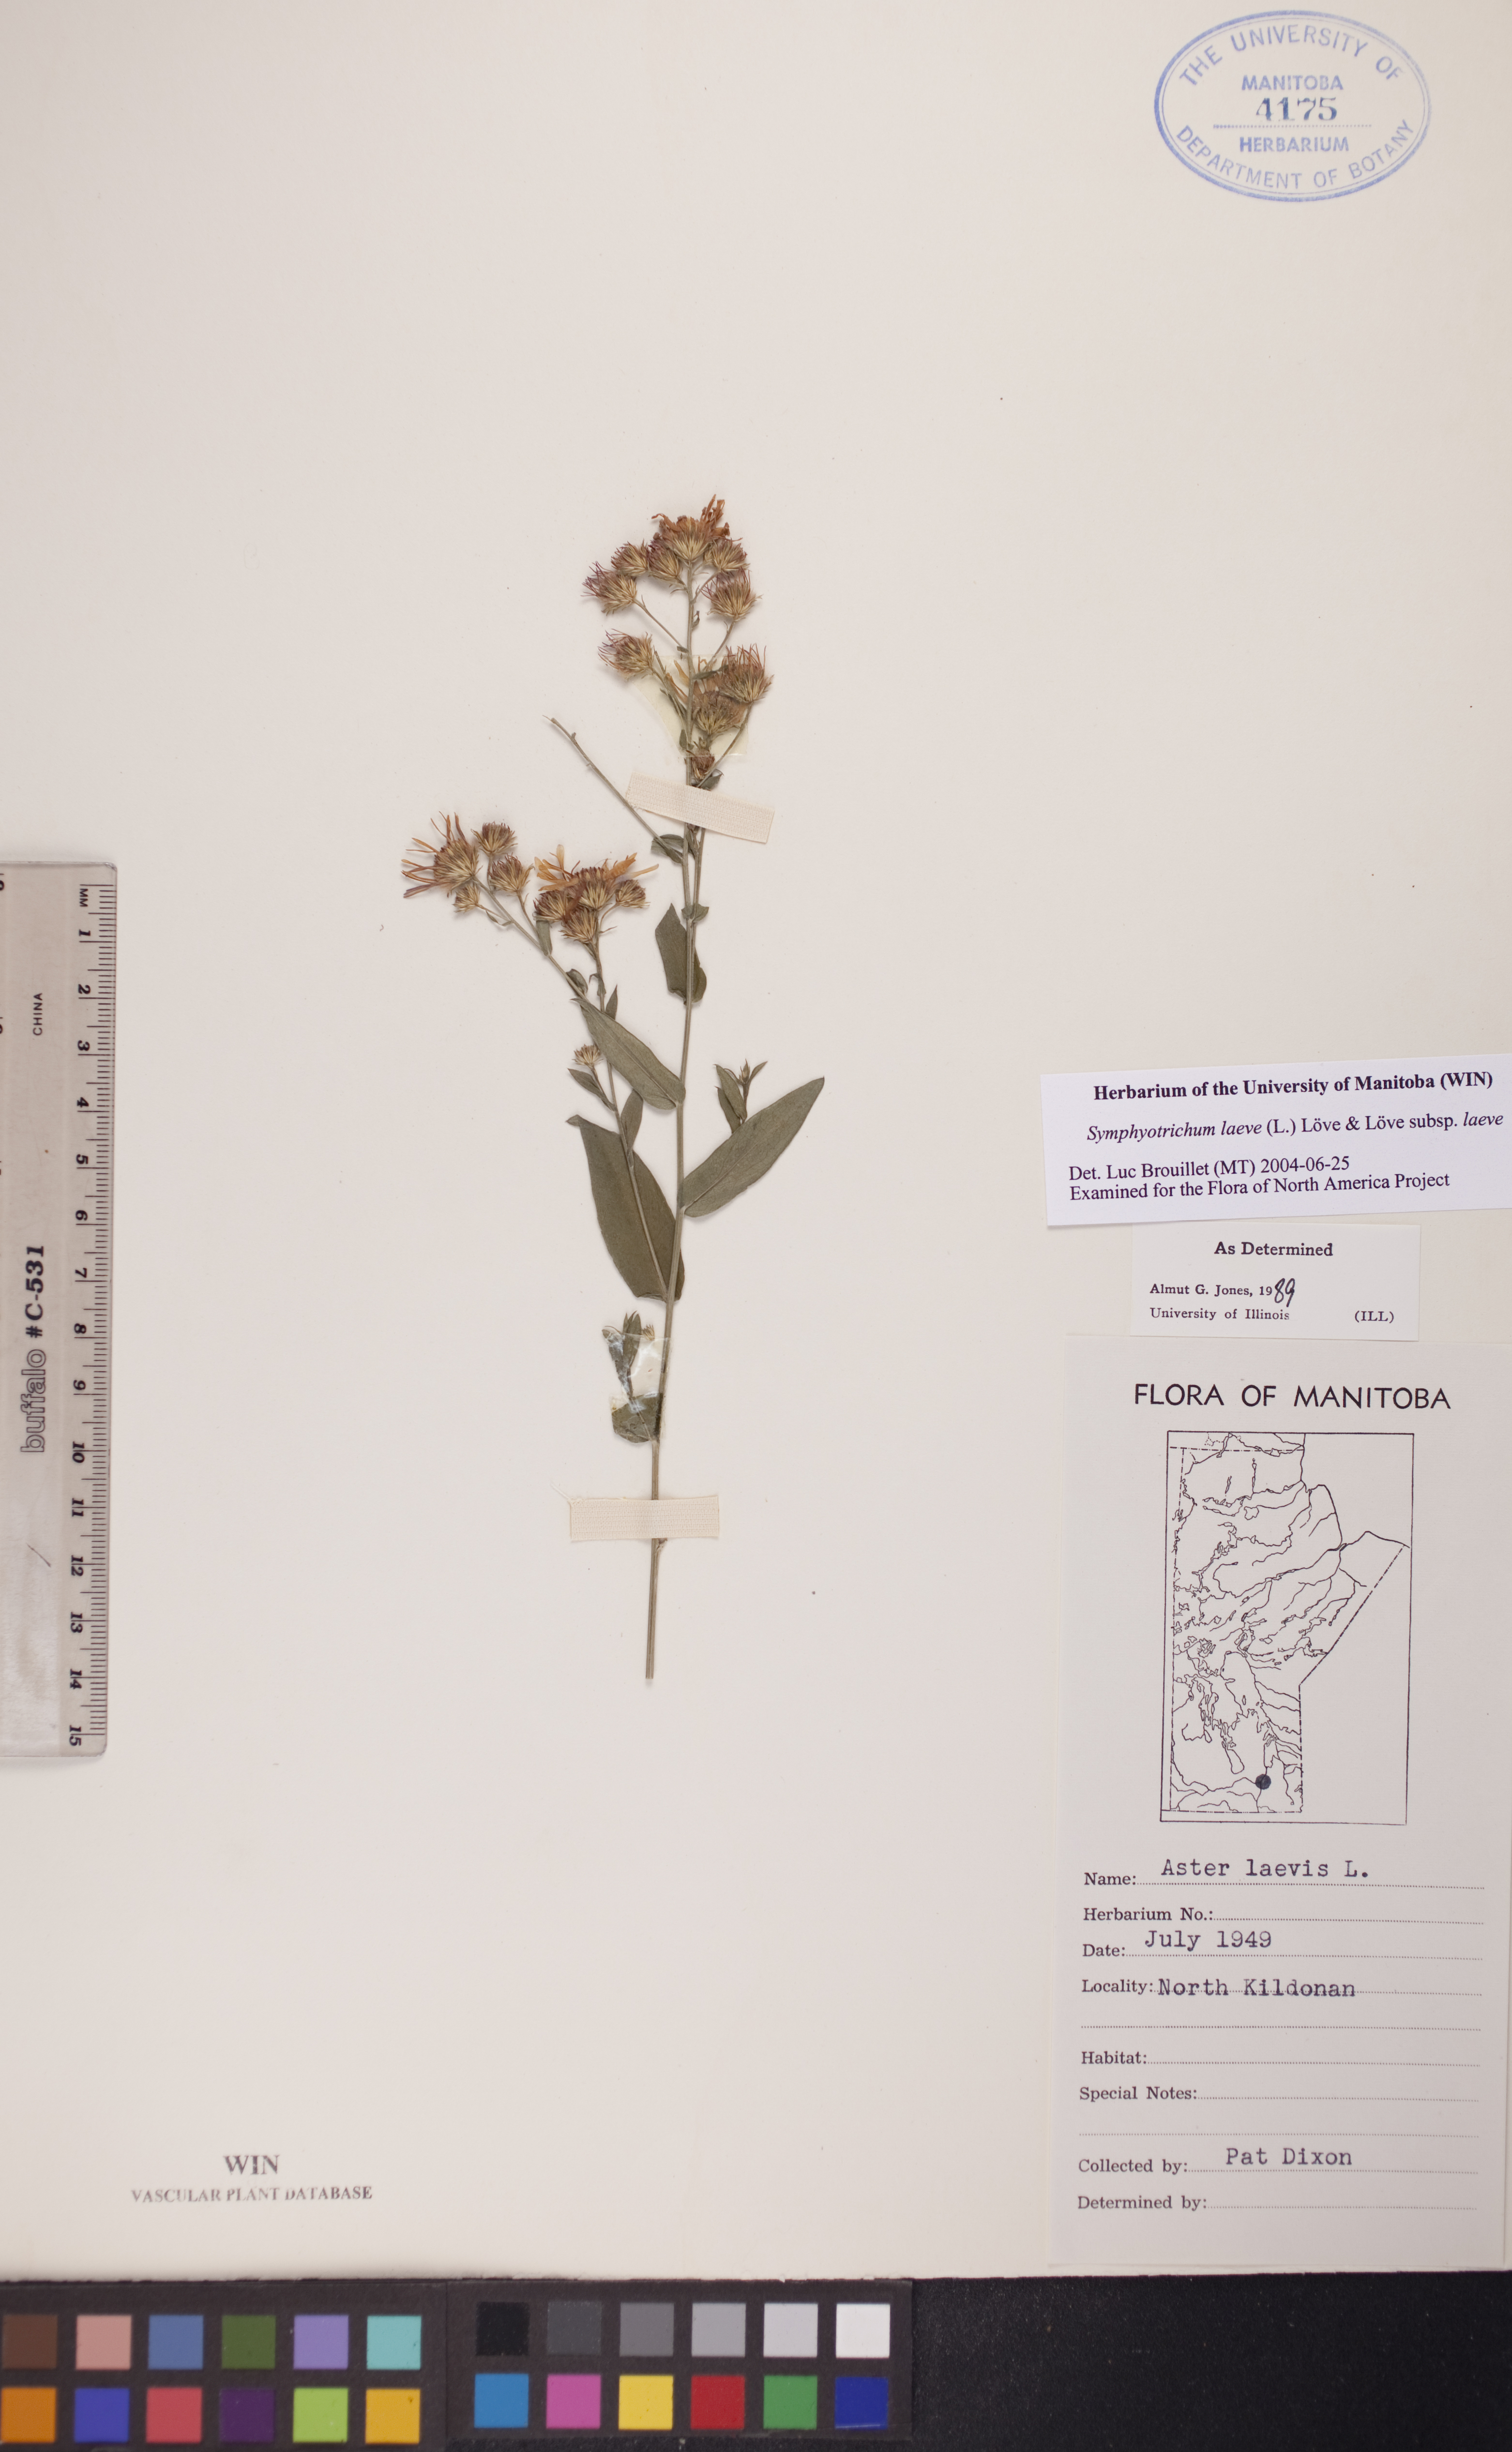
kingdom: Plantae
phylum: Tracheophyta
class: Magnoliopsida
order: Asterales
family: Asteraceae
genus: Symphyotrichum
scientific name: Symphyotrichum laeve
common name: Glaucous aster
